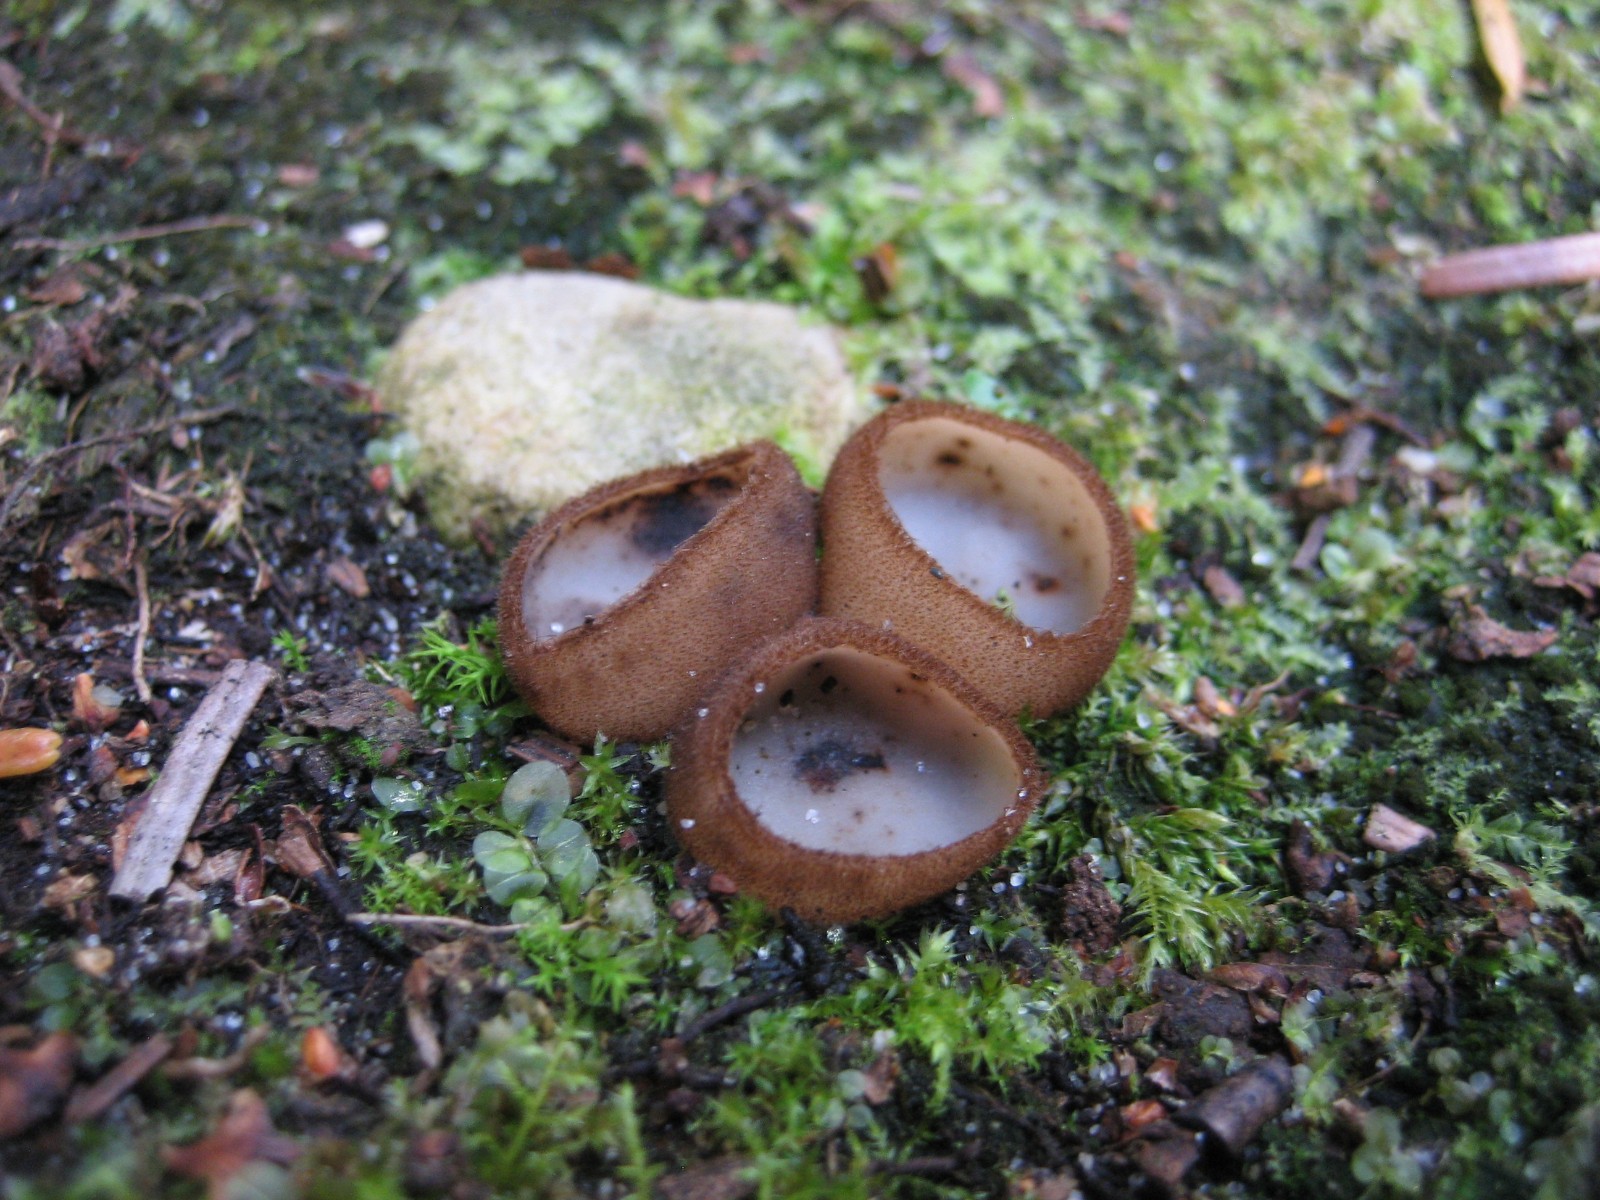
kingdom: Fungi
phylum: Ascomycota
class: Pezizomycetes
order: Pezizales
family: Pyronemataceae
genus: Humaria
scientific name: Humaria hemisphaerica
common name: halvkugleformet børstebæger
